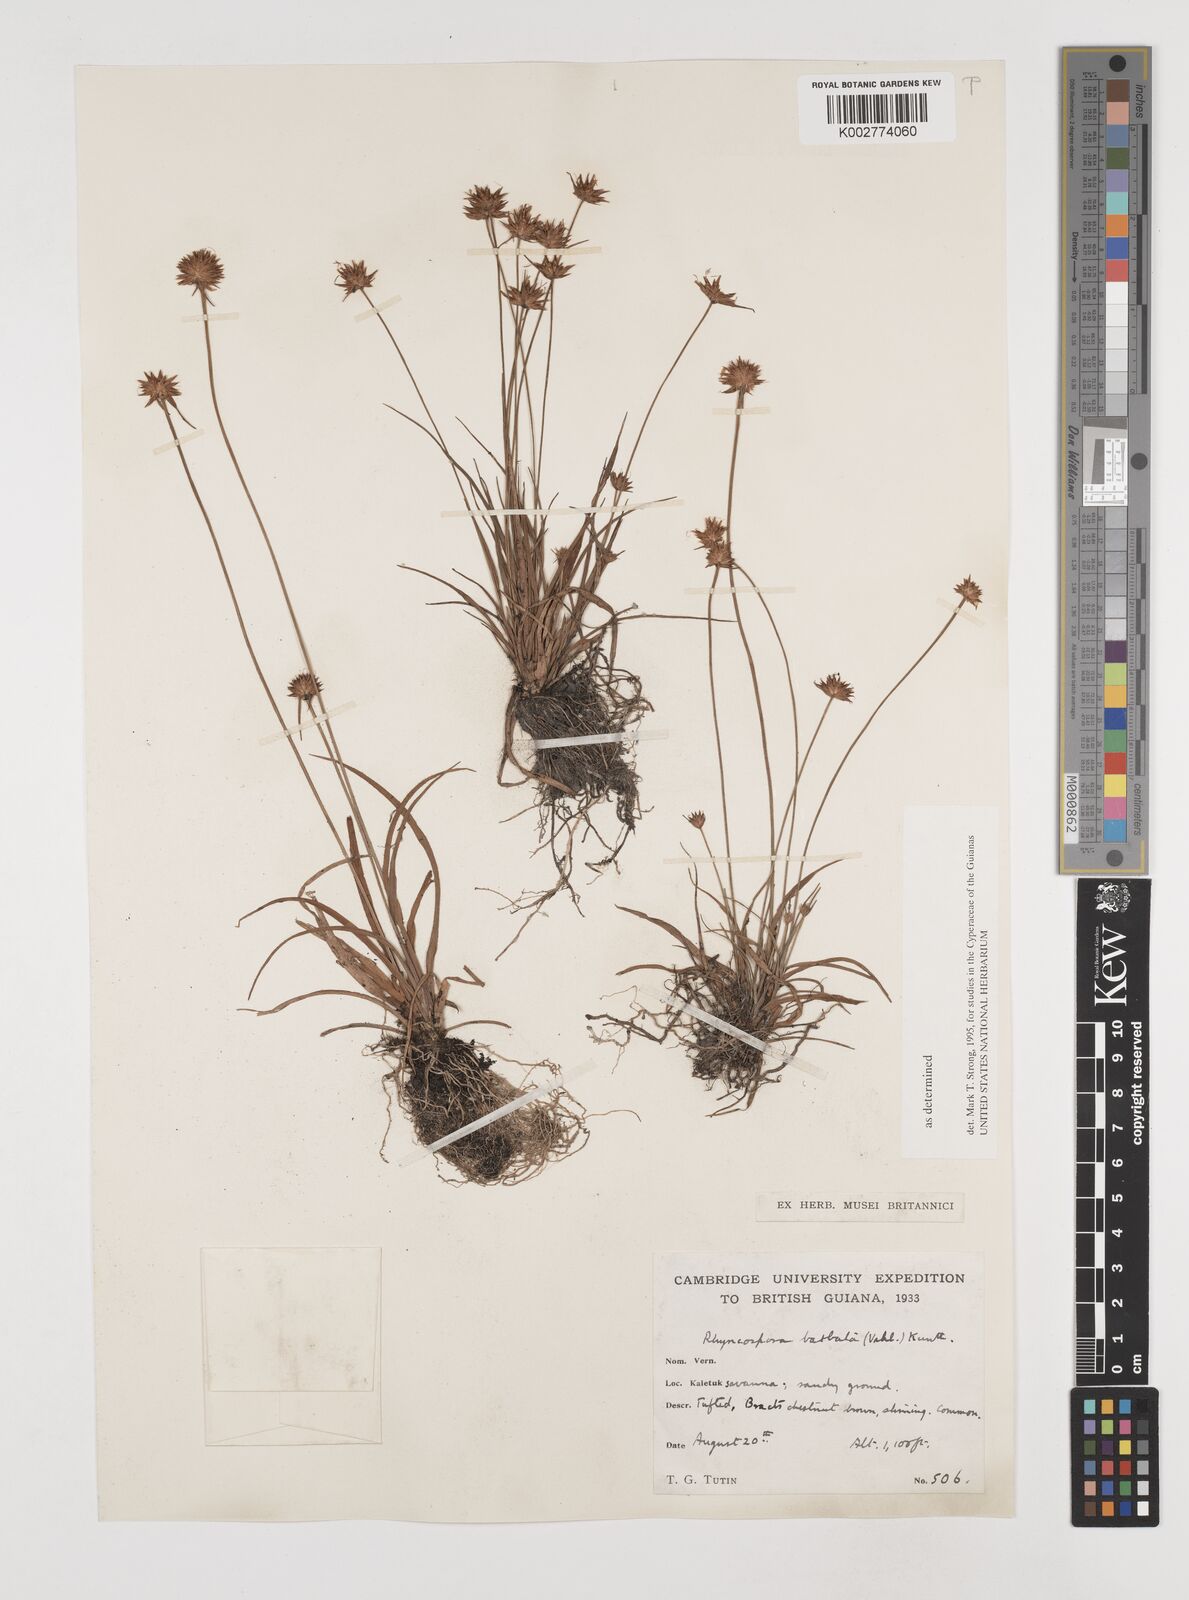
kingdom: Plantae
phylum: Tracheophyta
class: Liliopsida
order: Poales
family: Cyperaceae
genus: Rhynchospora
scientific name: Rhynchospora barbata
